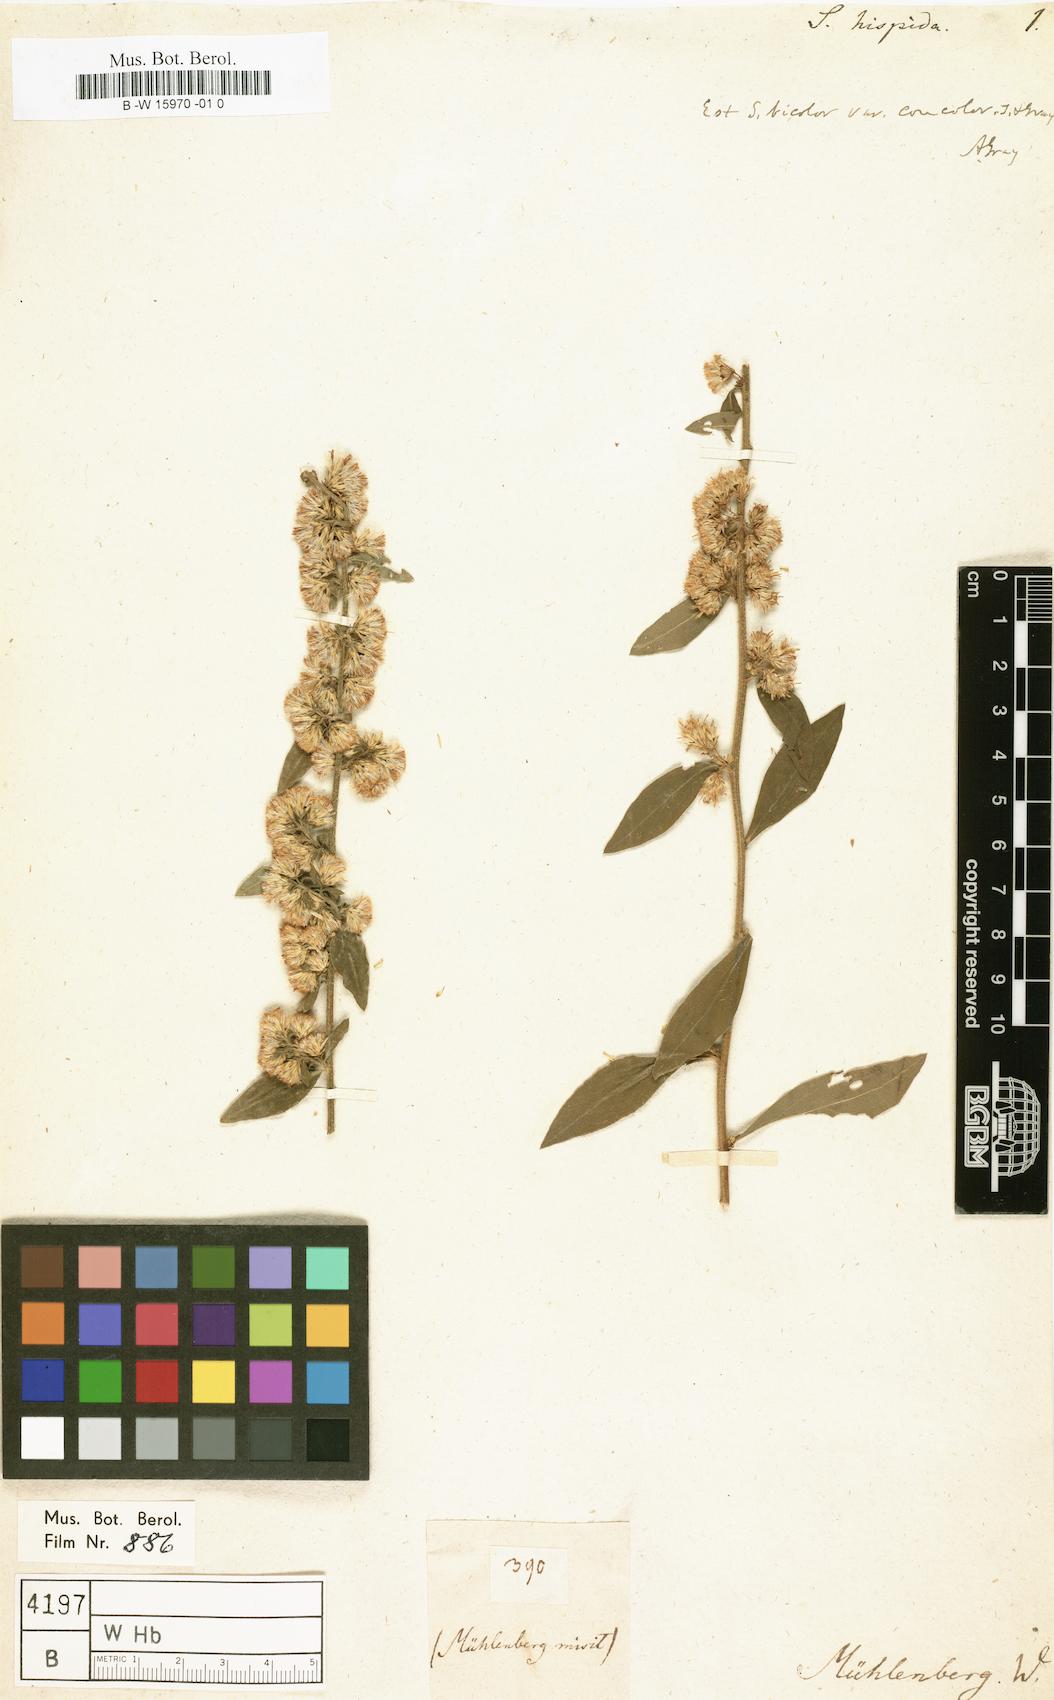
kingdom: Plantae
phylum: Tracheophyta
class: Magnoliopsida
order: Asterales
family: Asteraceae
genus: Solidago
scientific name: Solidago hispida
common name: Hairy goldenrod
